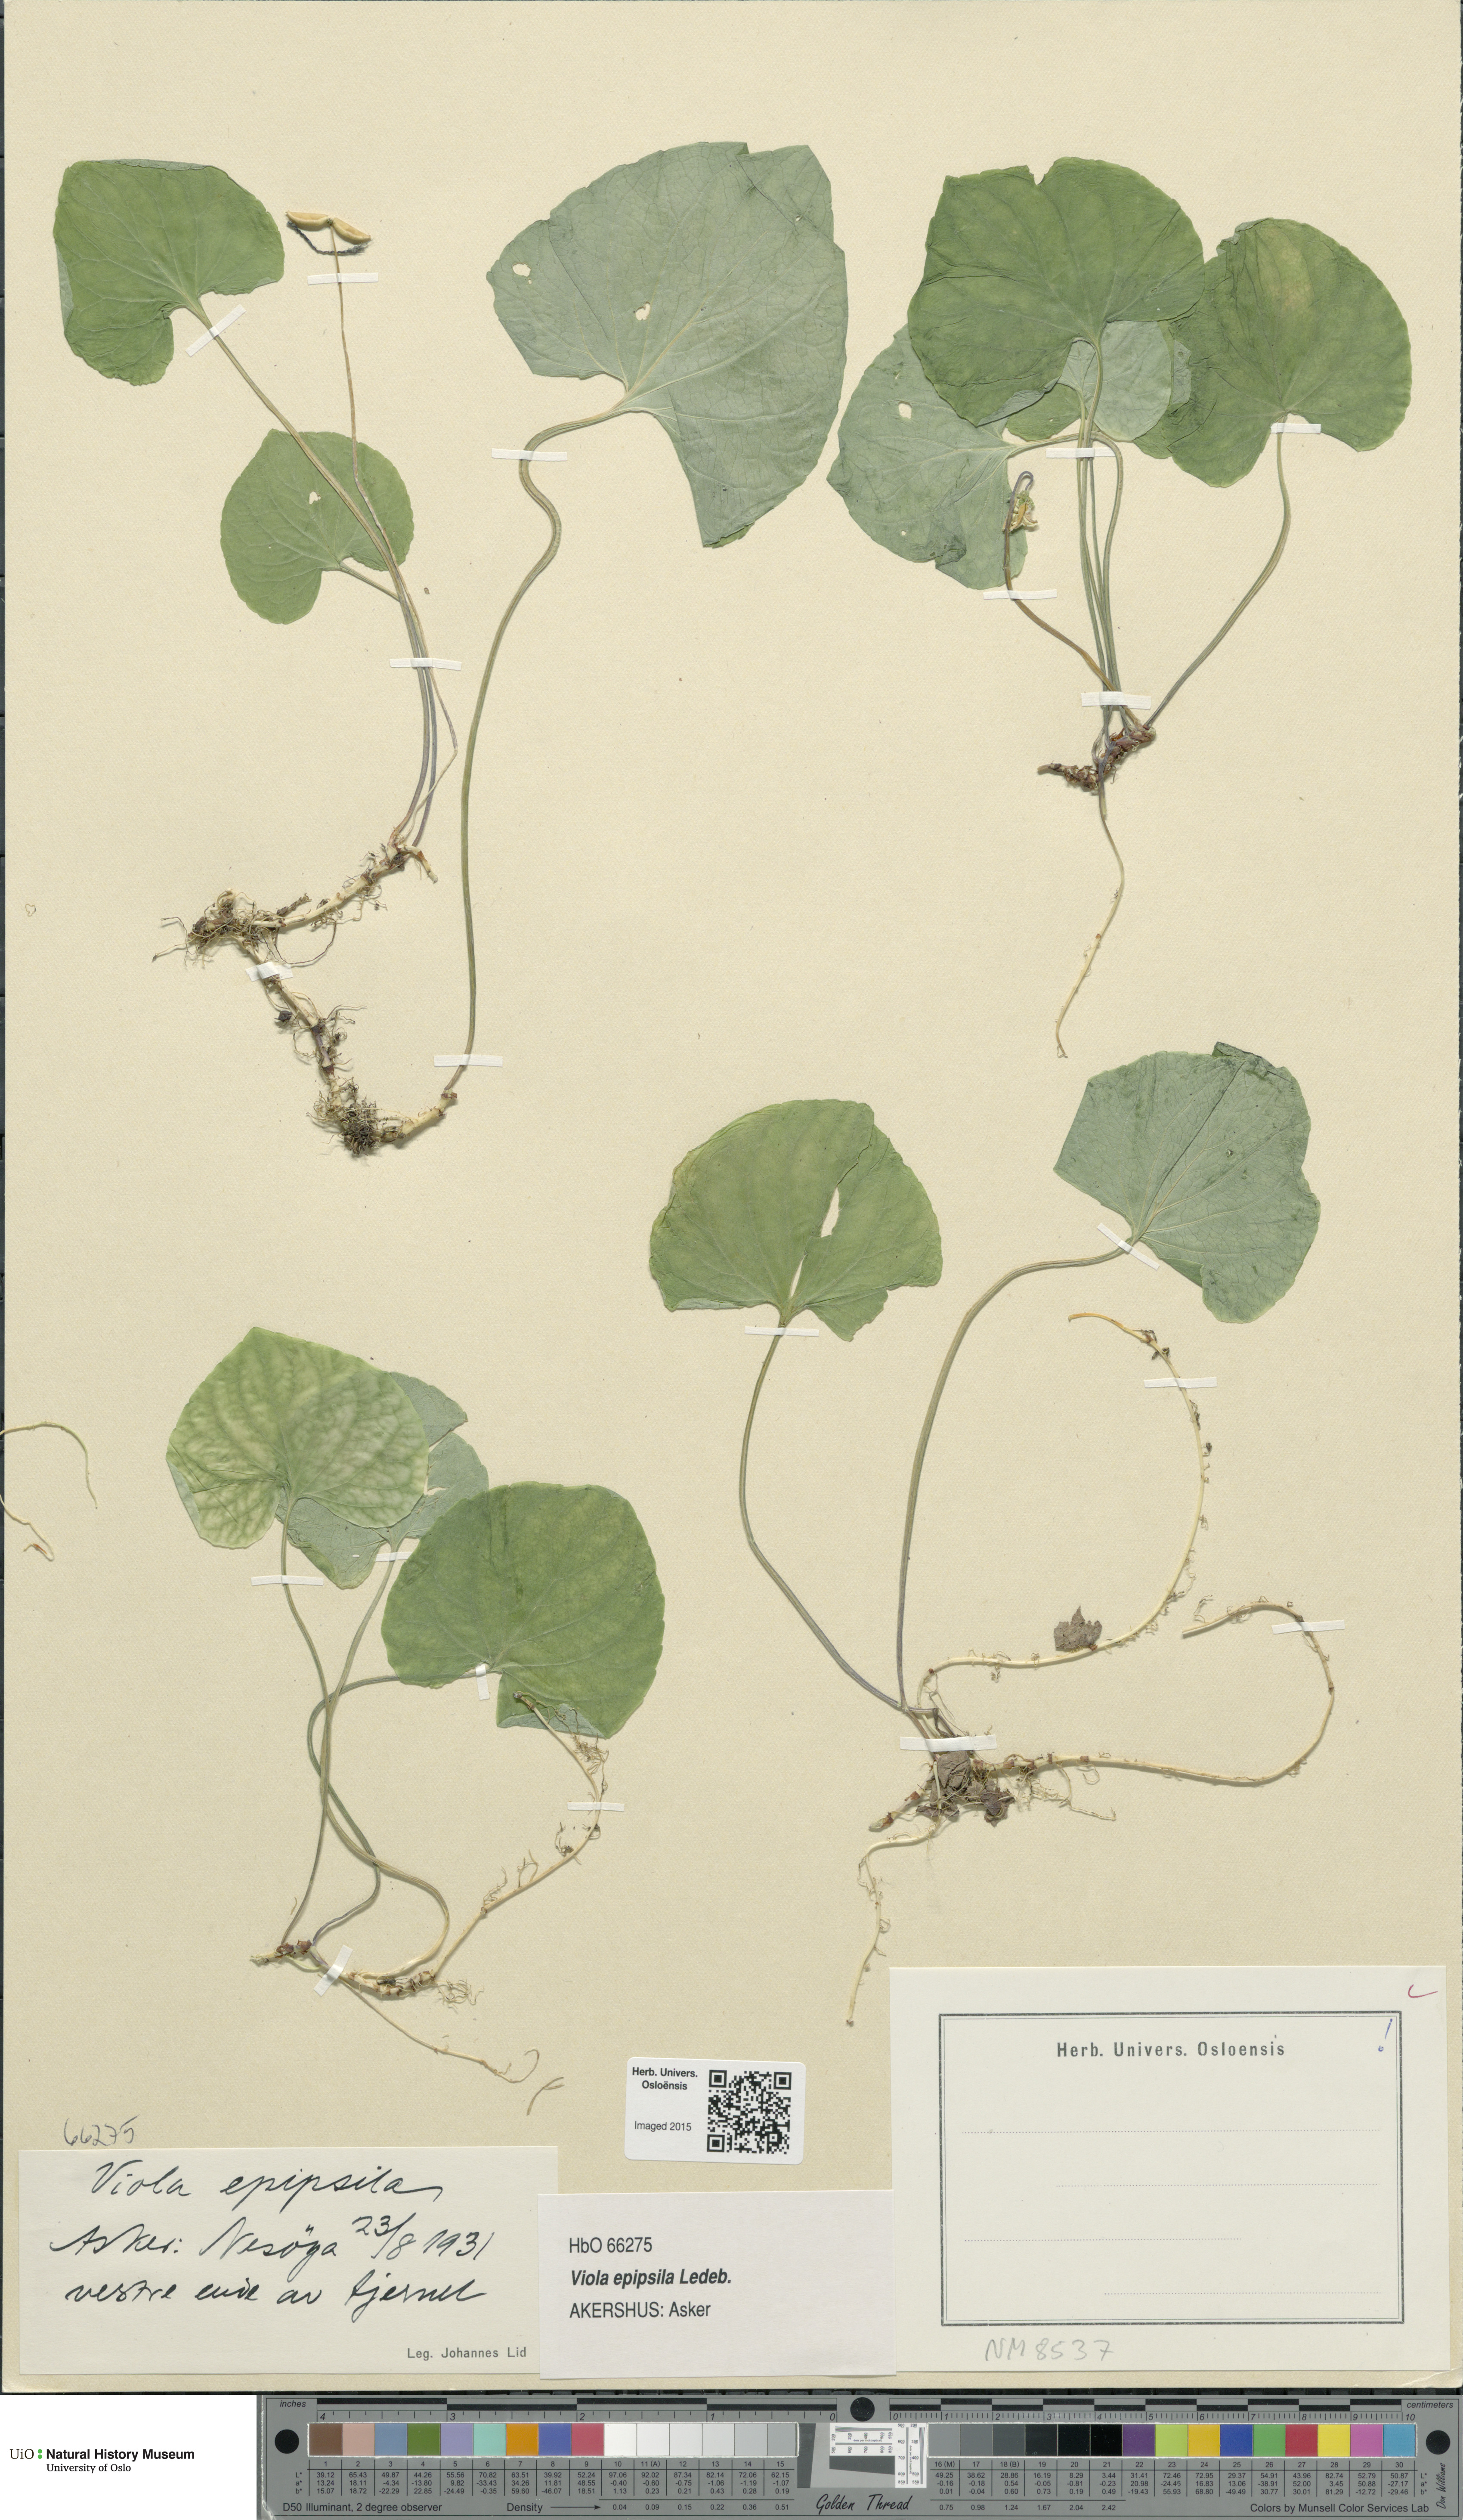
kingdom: Plantae
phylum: Tracheophyta
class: Magnoliopsida
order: Malpighiales
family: Violaceae
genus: Viola
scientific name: Viola epipsila
